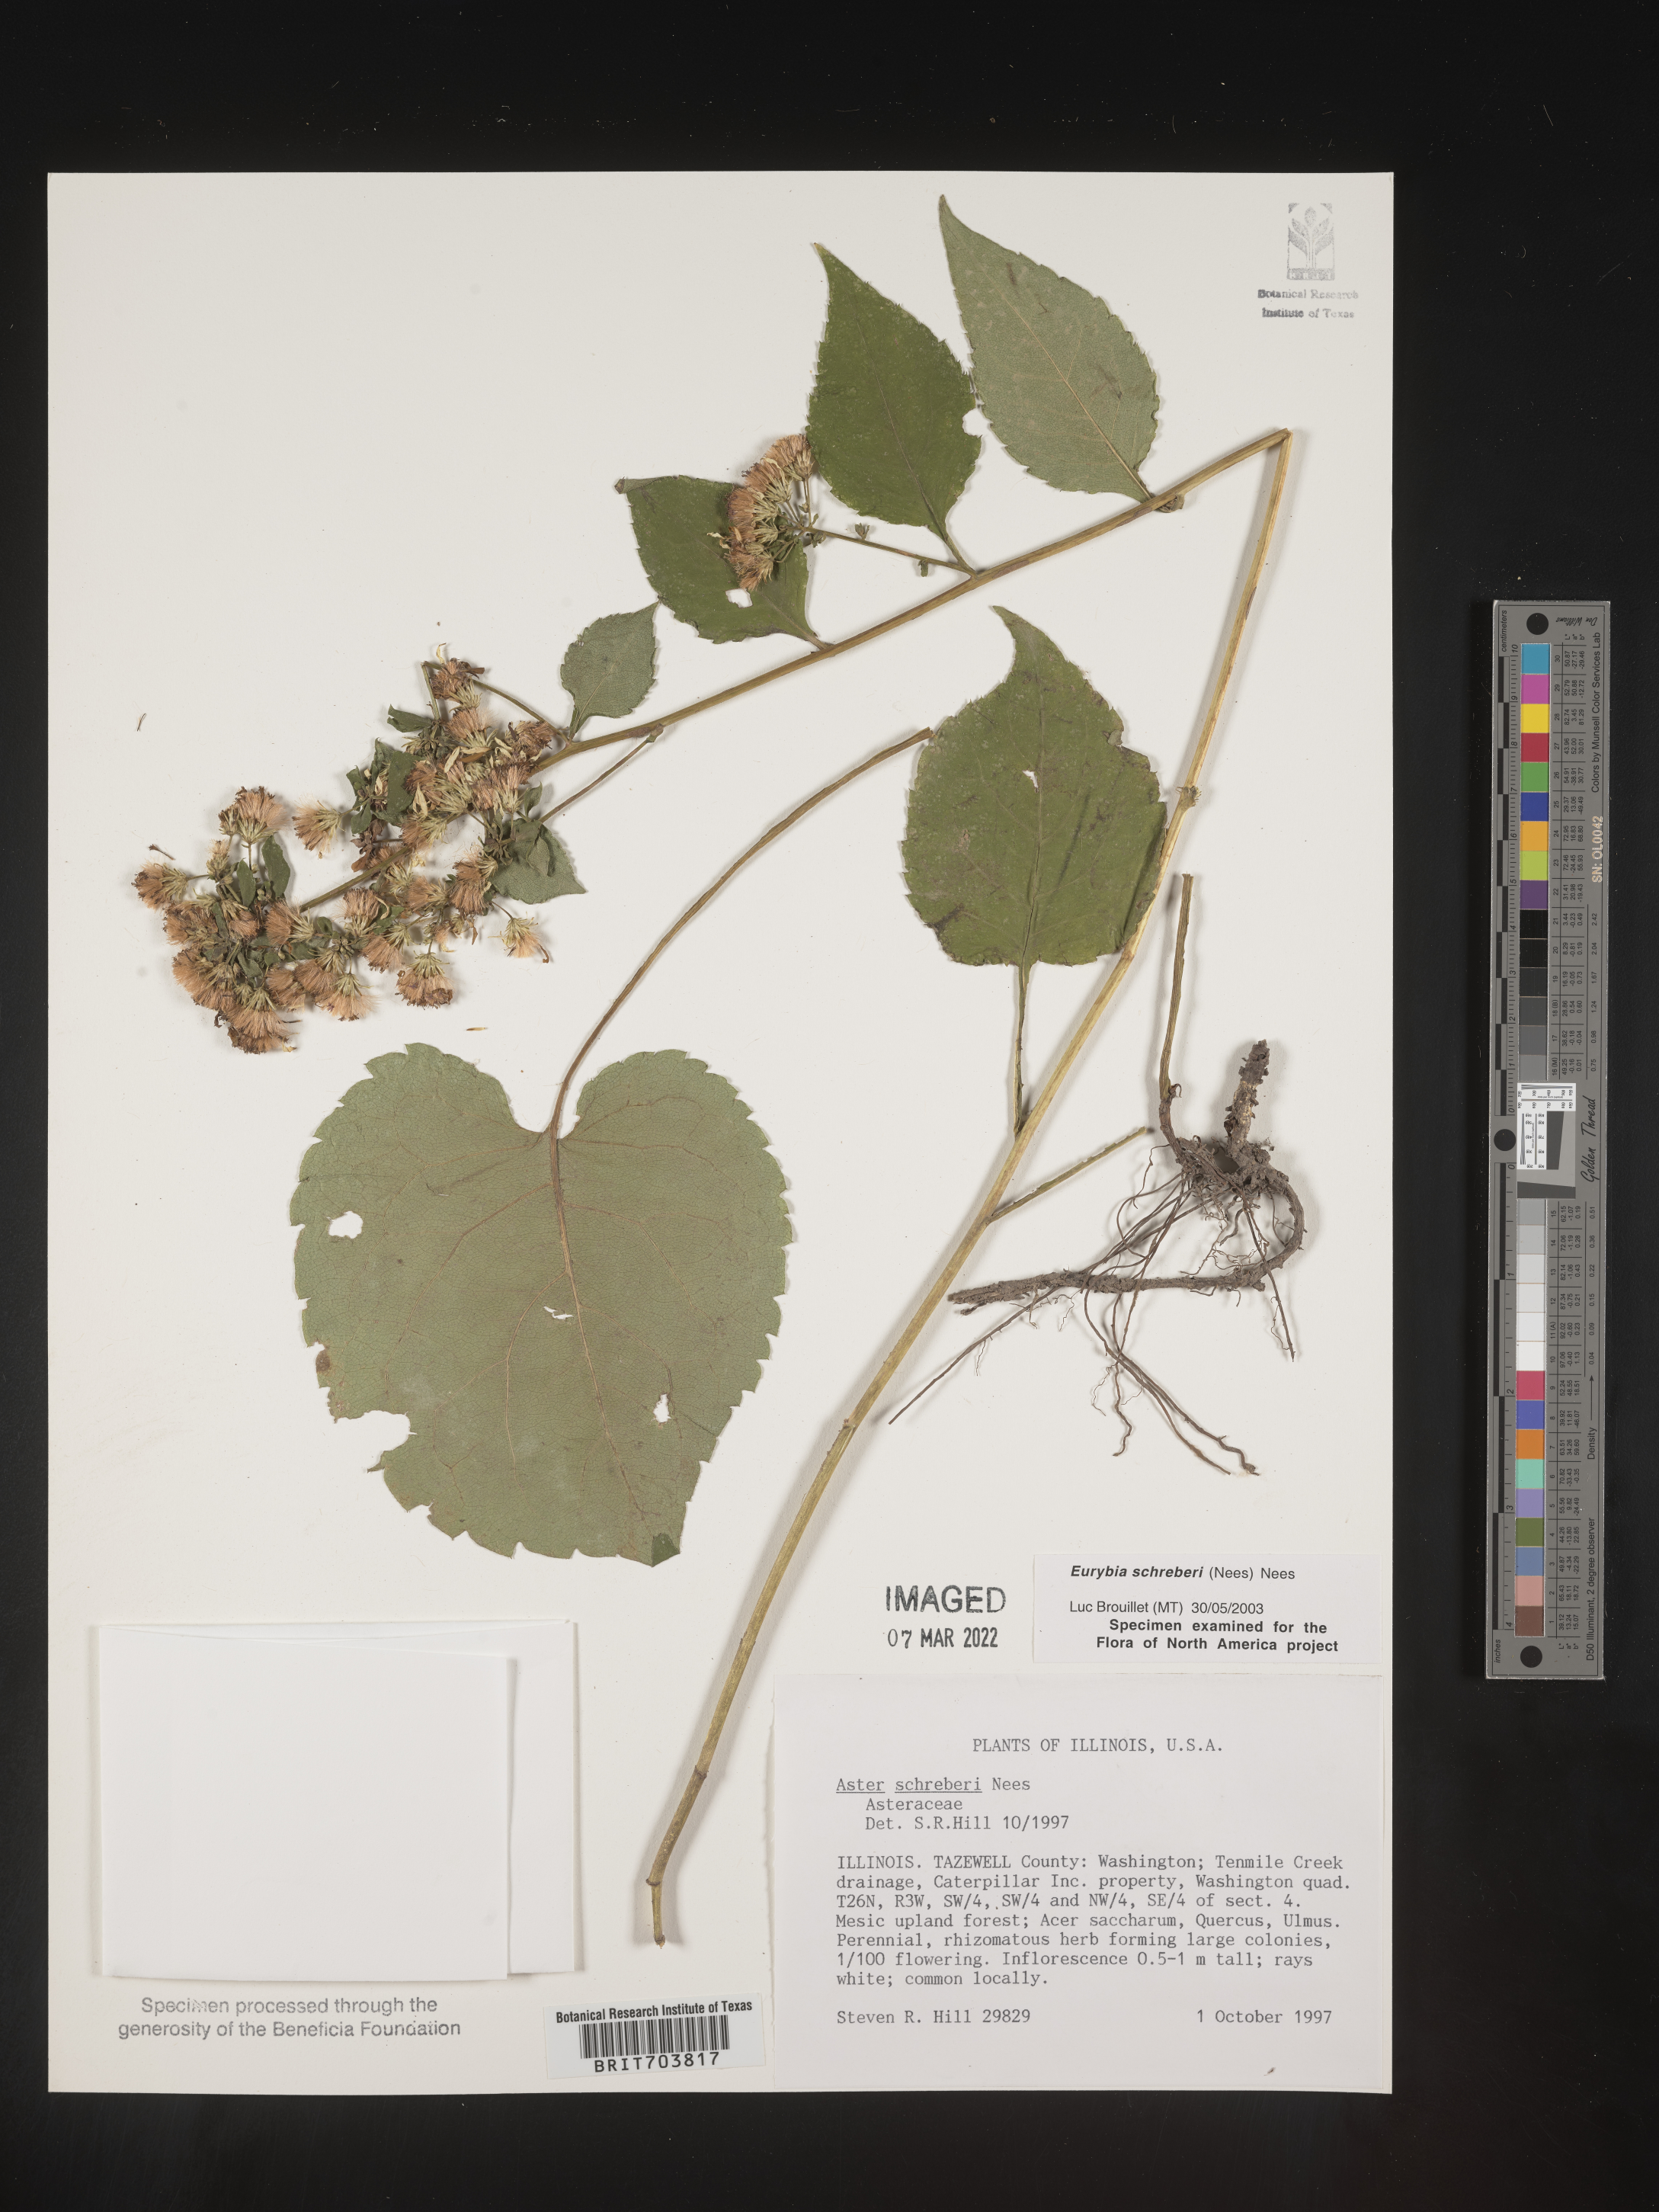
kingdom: Plantae
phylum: Tracheophyta
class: Magnoliopsida
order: Asterales
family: Asteraceae
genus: Eurybia
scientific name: Eurybia schreberi
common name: Schreber's aster
